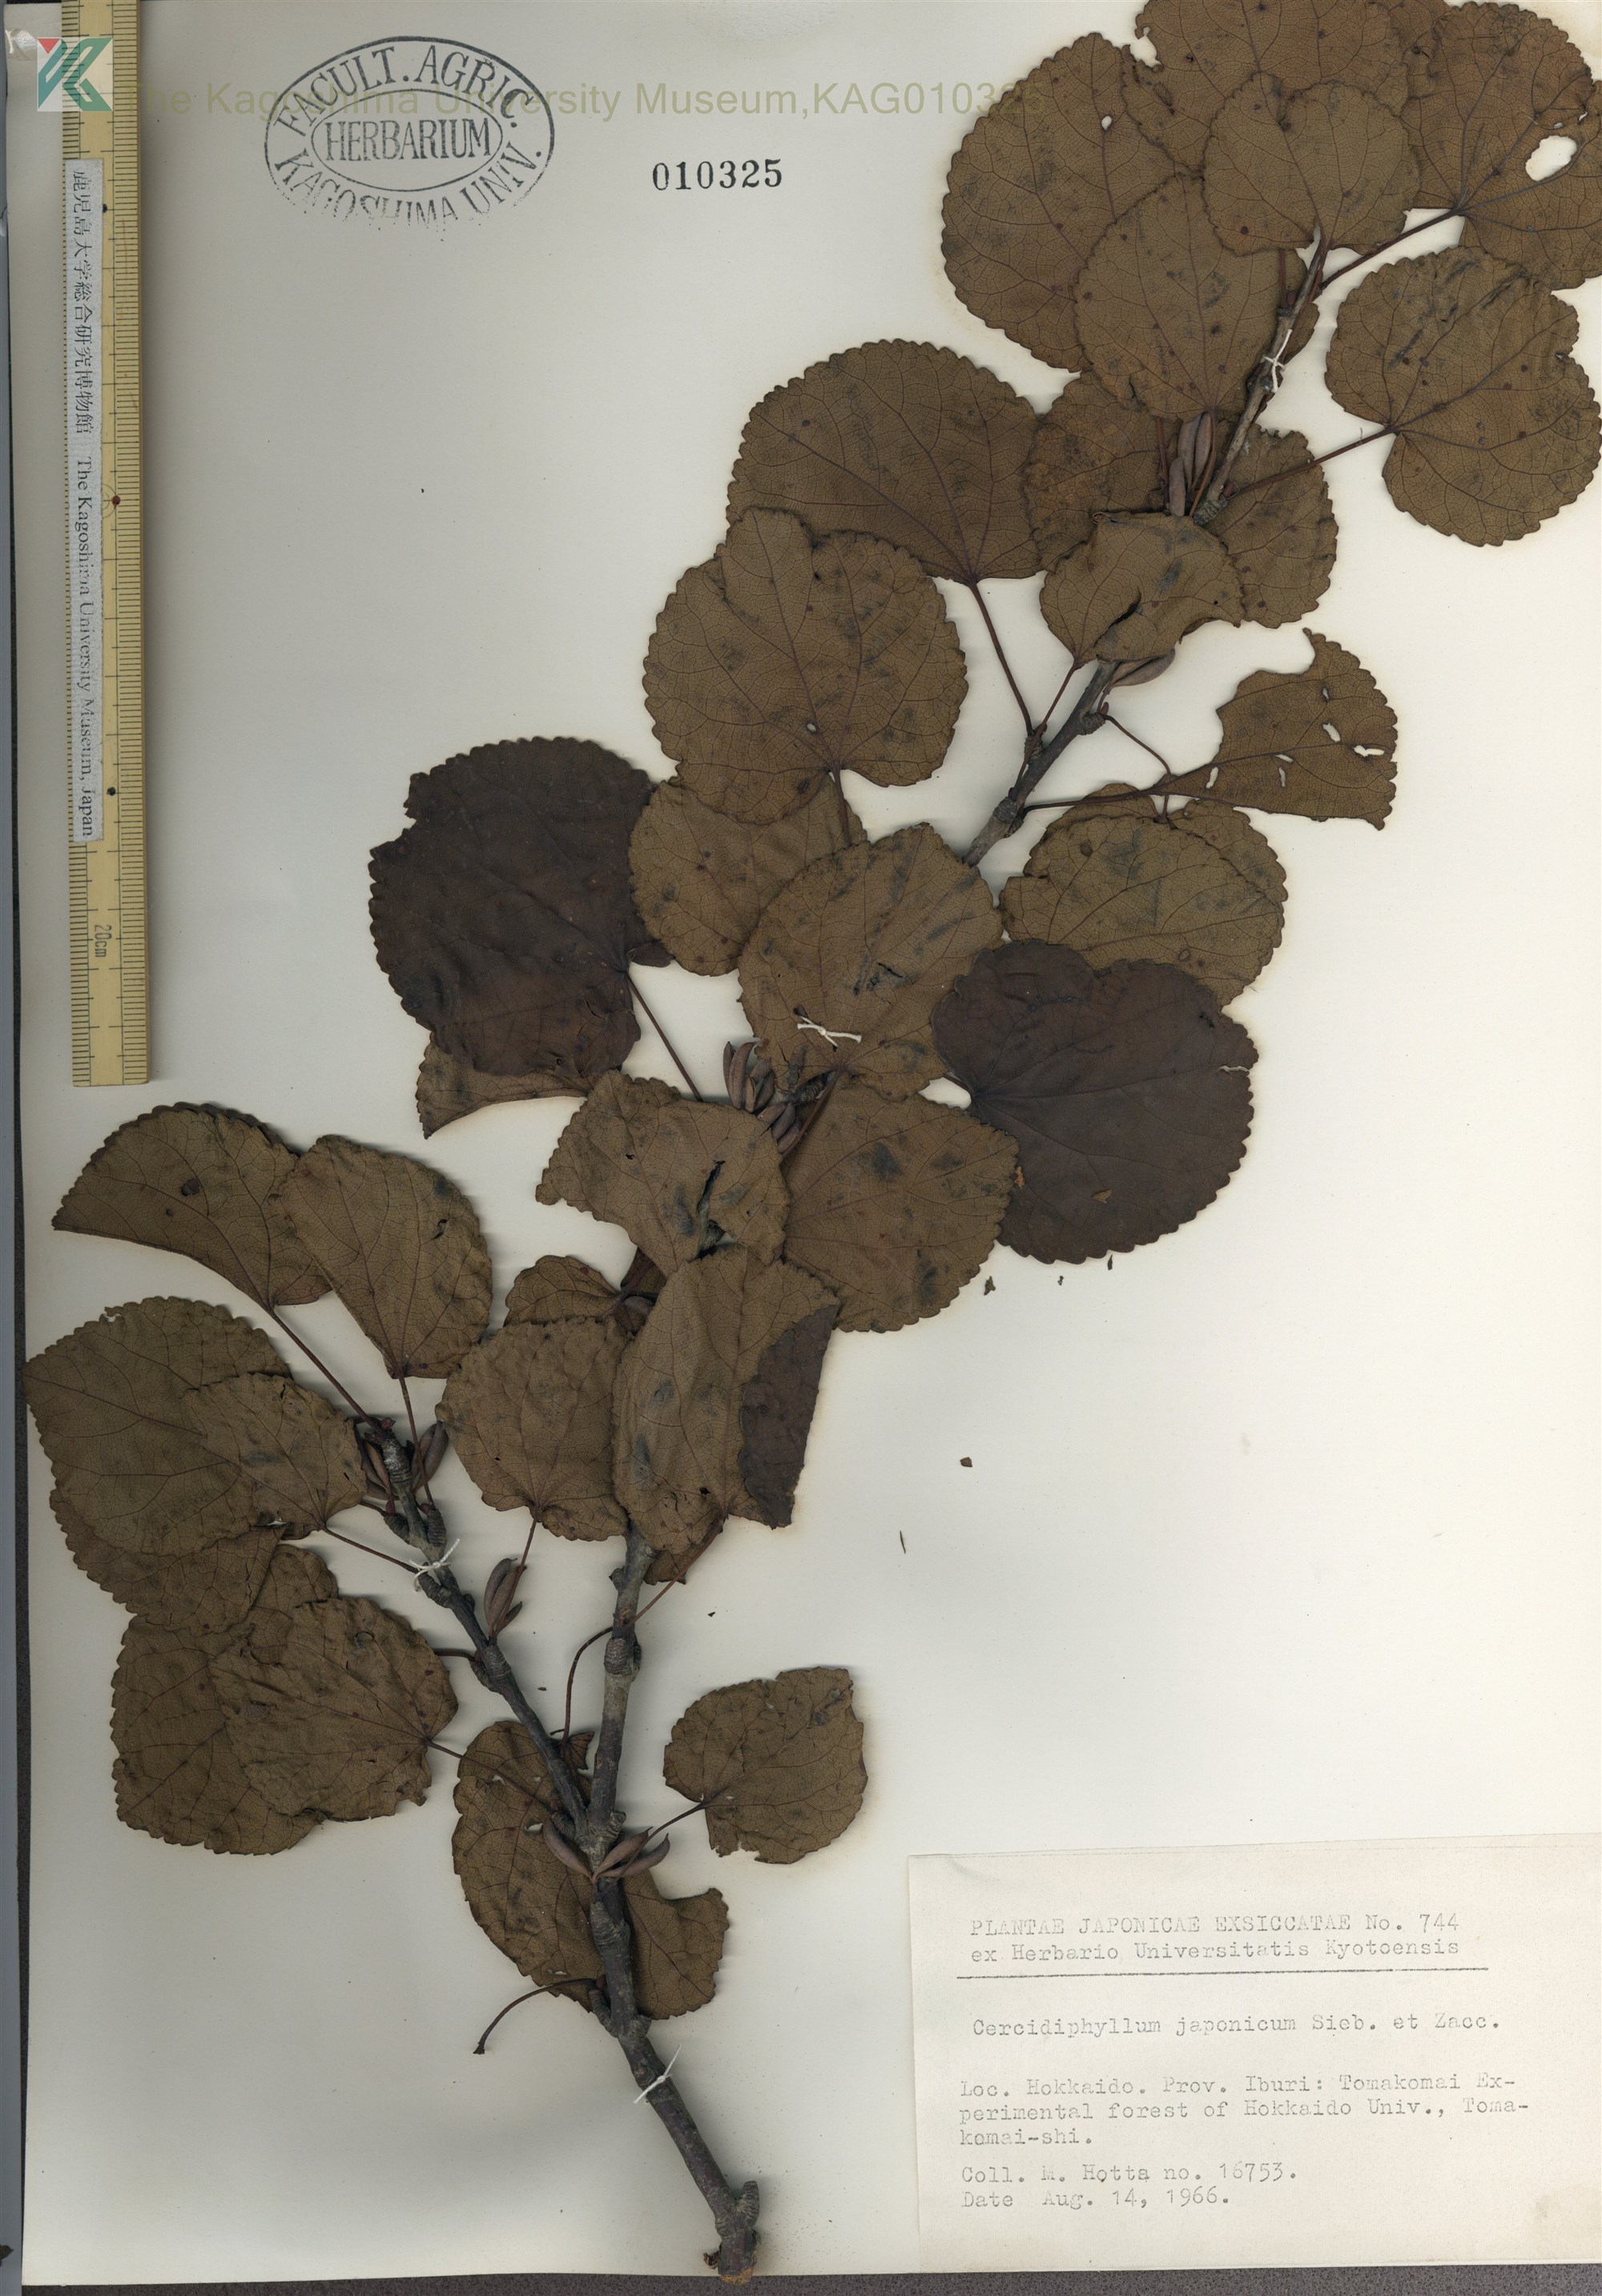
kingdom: Plantae
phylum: Tracheophyta
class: Magnoliopsida
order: Saxifragales
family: Cercidiphyllaceae
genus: Cercidiphyllum
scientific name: Cercidiphyllum magnificum
